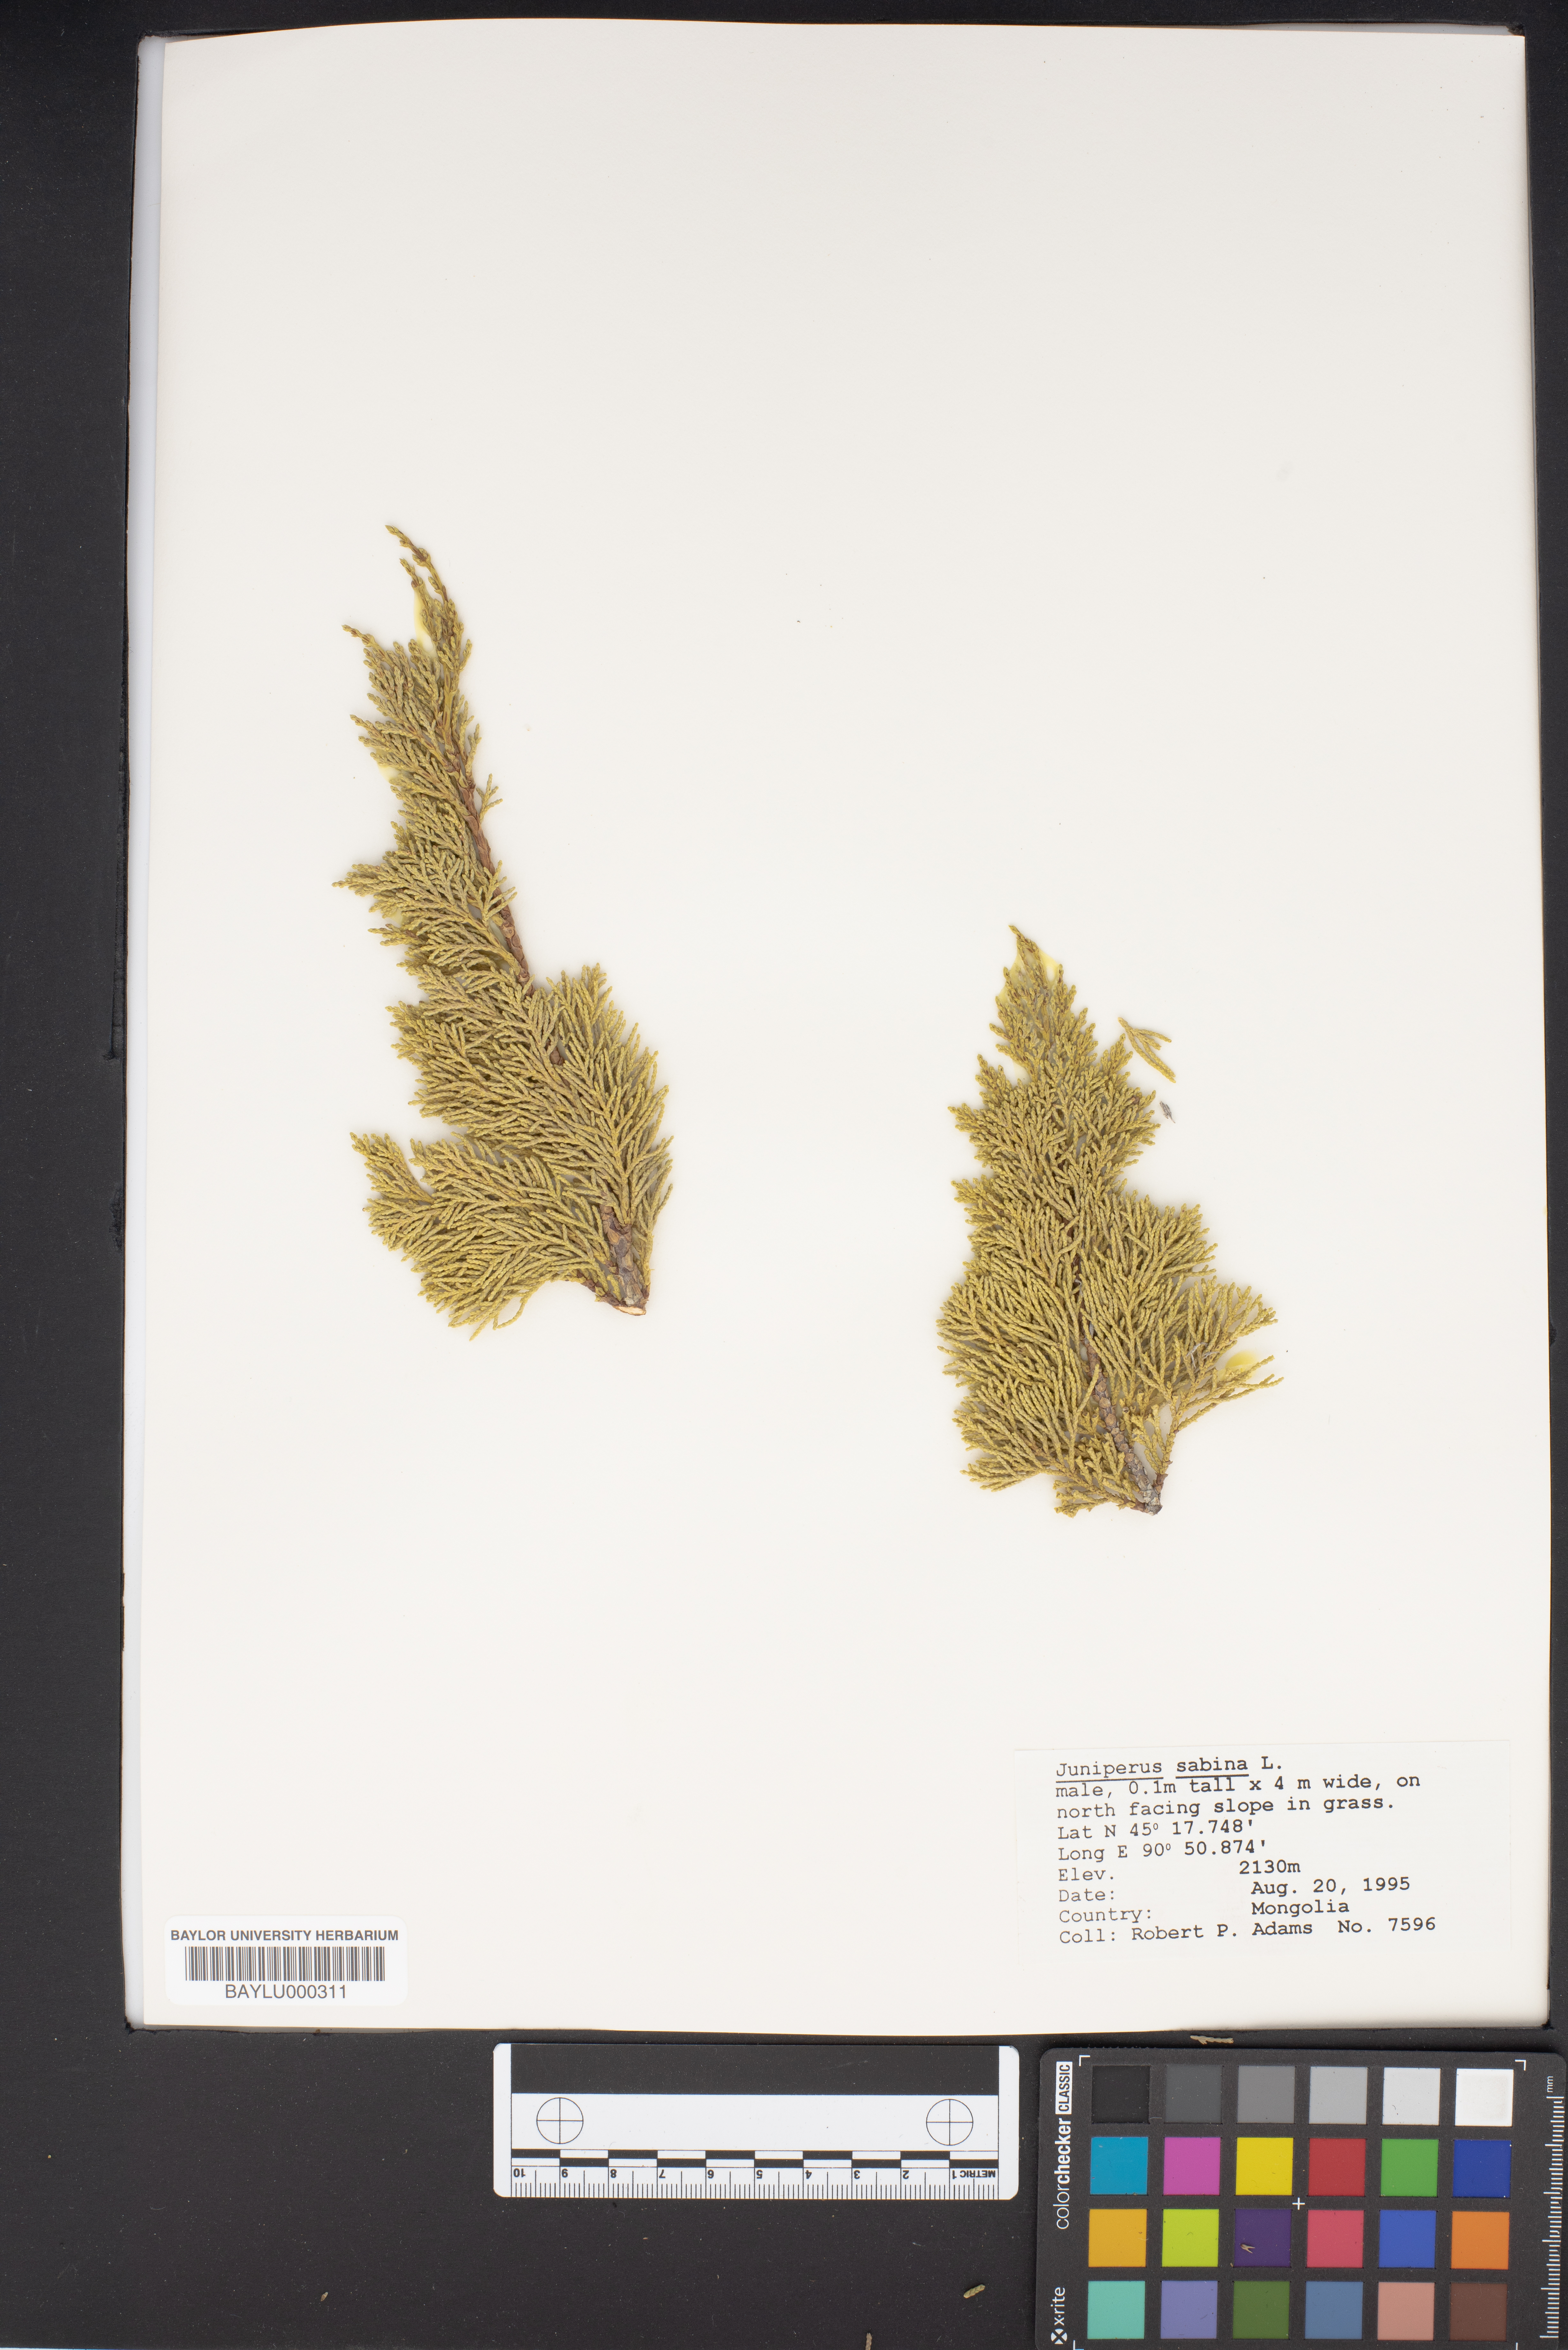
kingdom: Plantae
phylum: Tracheophyta
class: Pinopsida
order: Pinales
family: Cupressaceae
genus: Juniperus
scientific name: Juniperus sabina
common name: Savin
